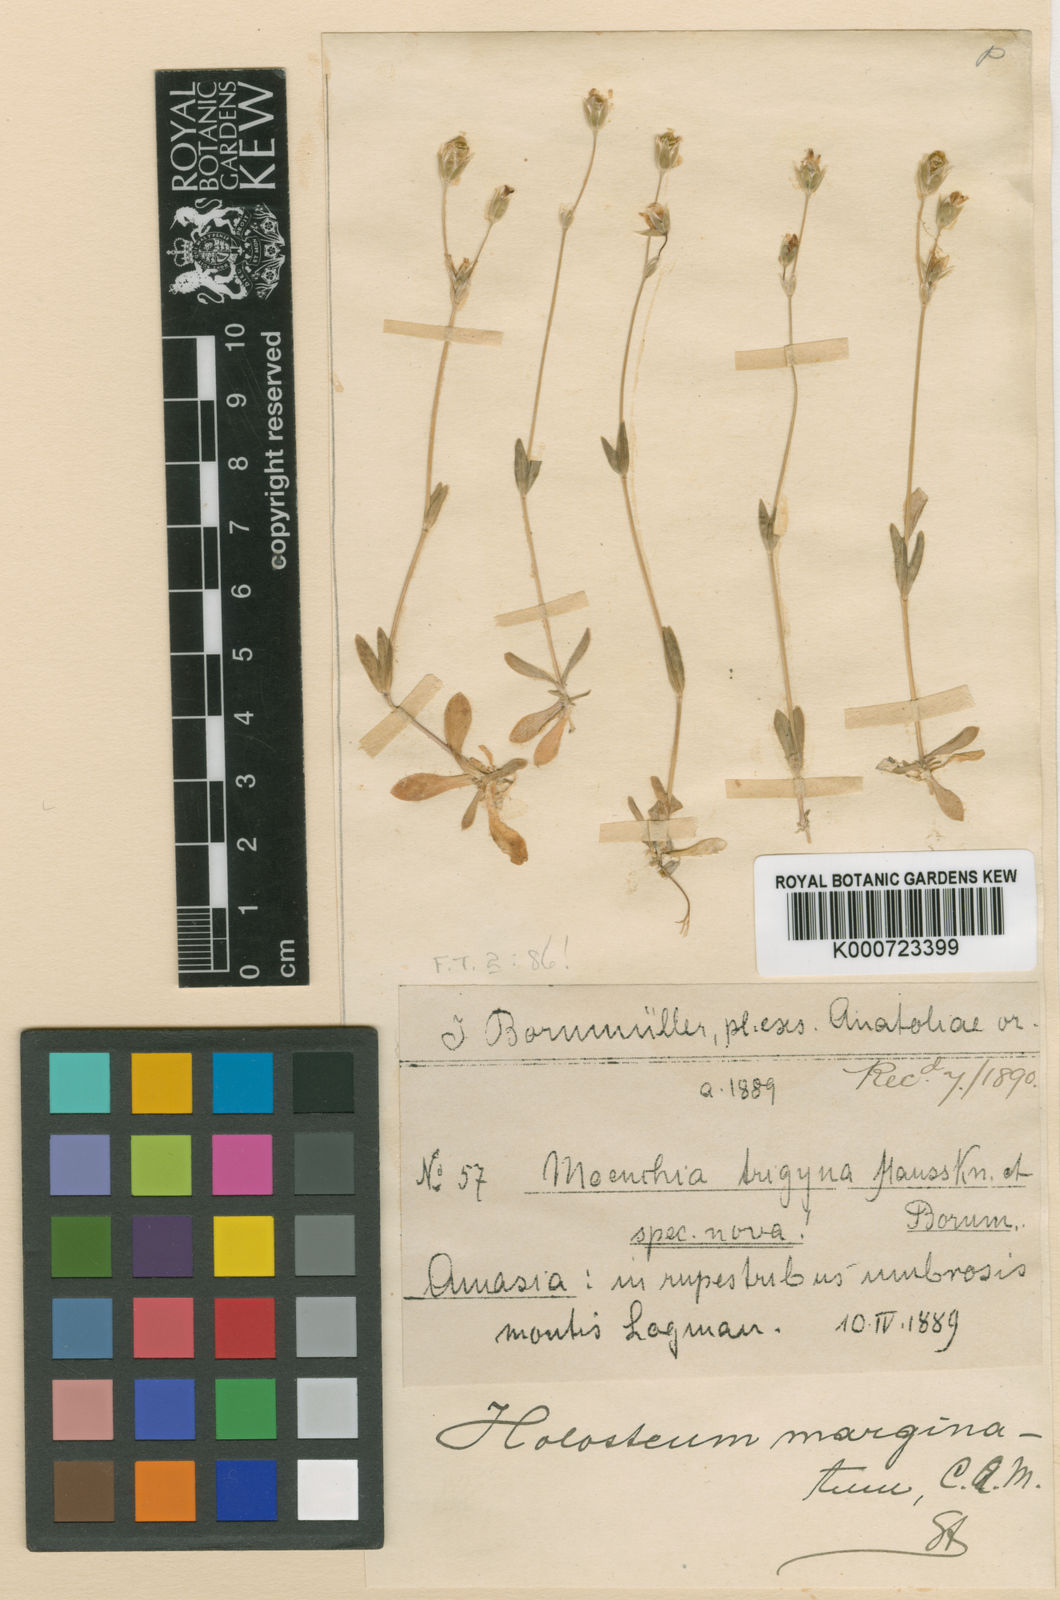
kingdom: Plantae
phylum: Tracheophyta
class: Magnoliopsida
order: Caryophyllales
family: Caryophyllaceae
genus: Holosteum
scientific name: Holosteum marginatum
